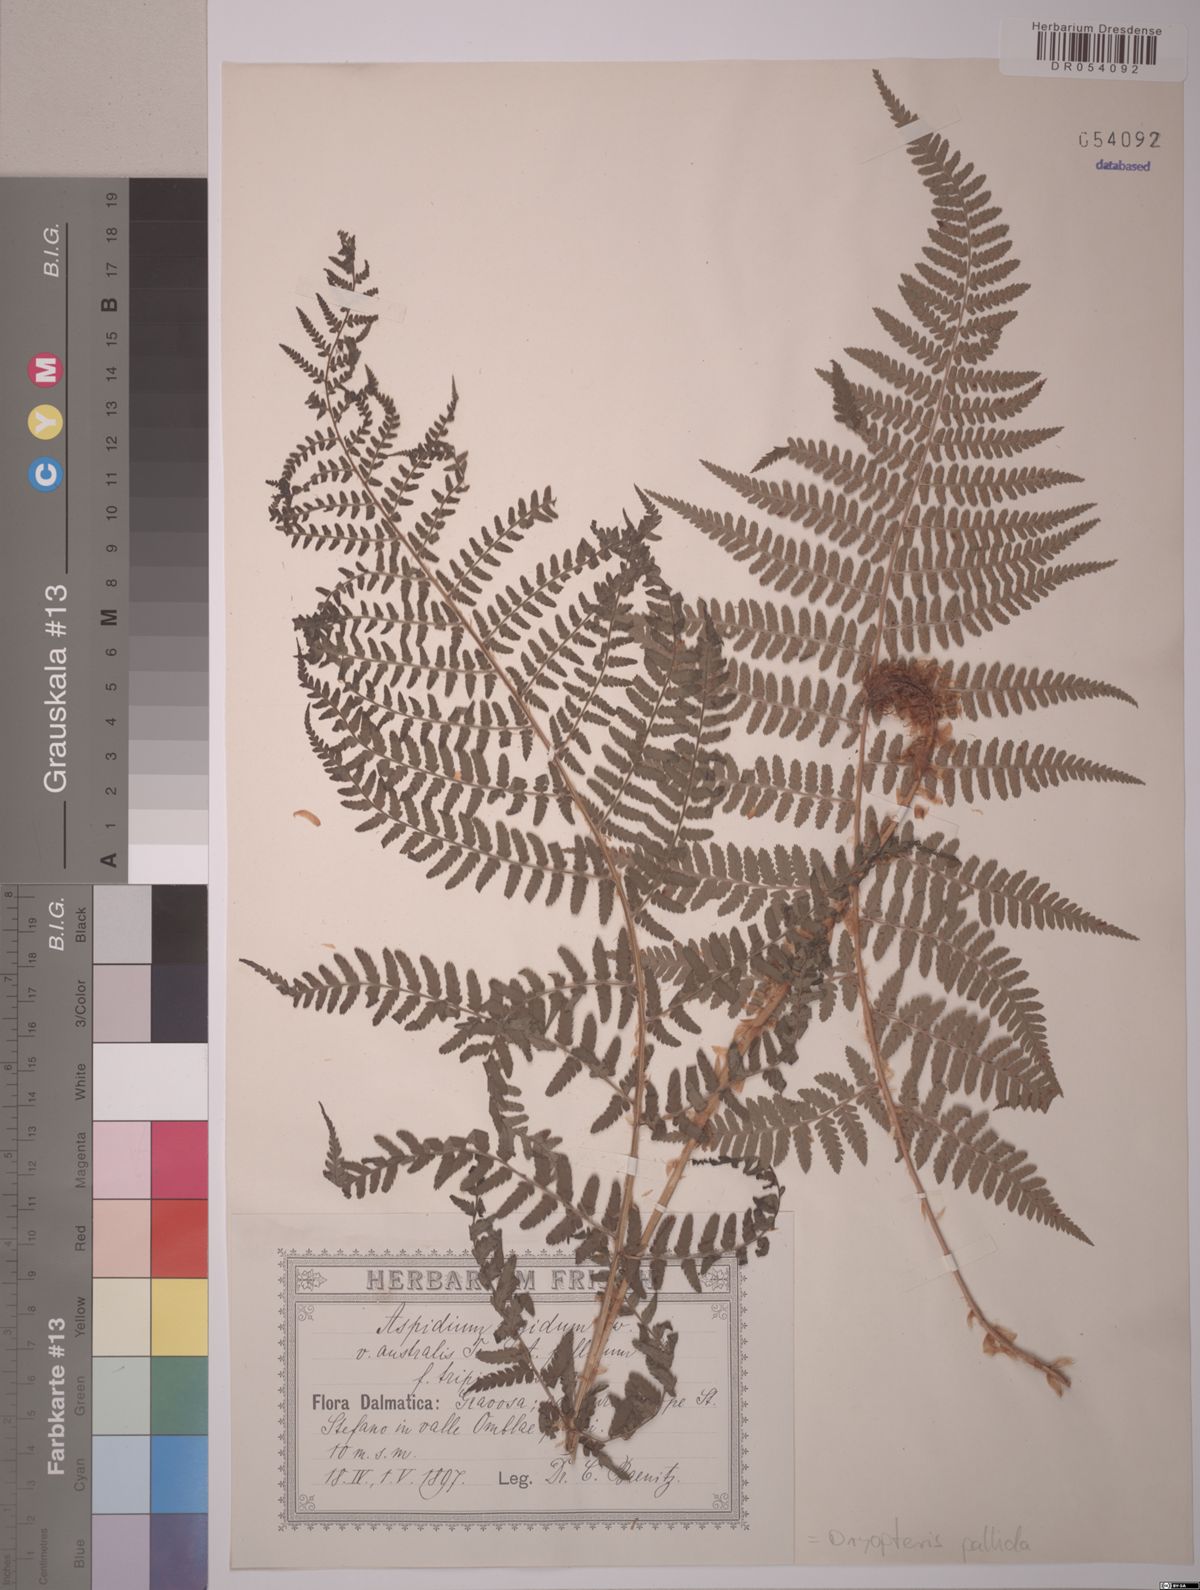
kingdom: Plantae
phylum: Tracheophyta
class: Polypodiopsida
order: Polypodiales
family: Dryopteridaceae
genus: Dryopteris
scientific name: Dryopteris pallida
